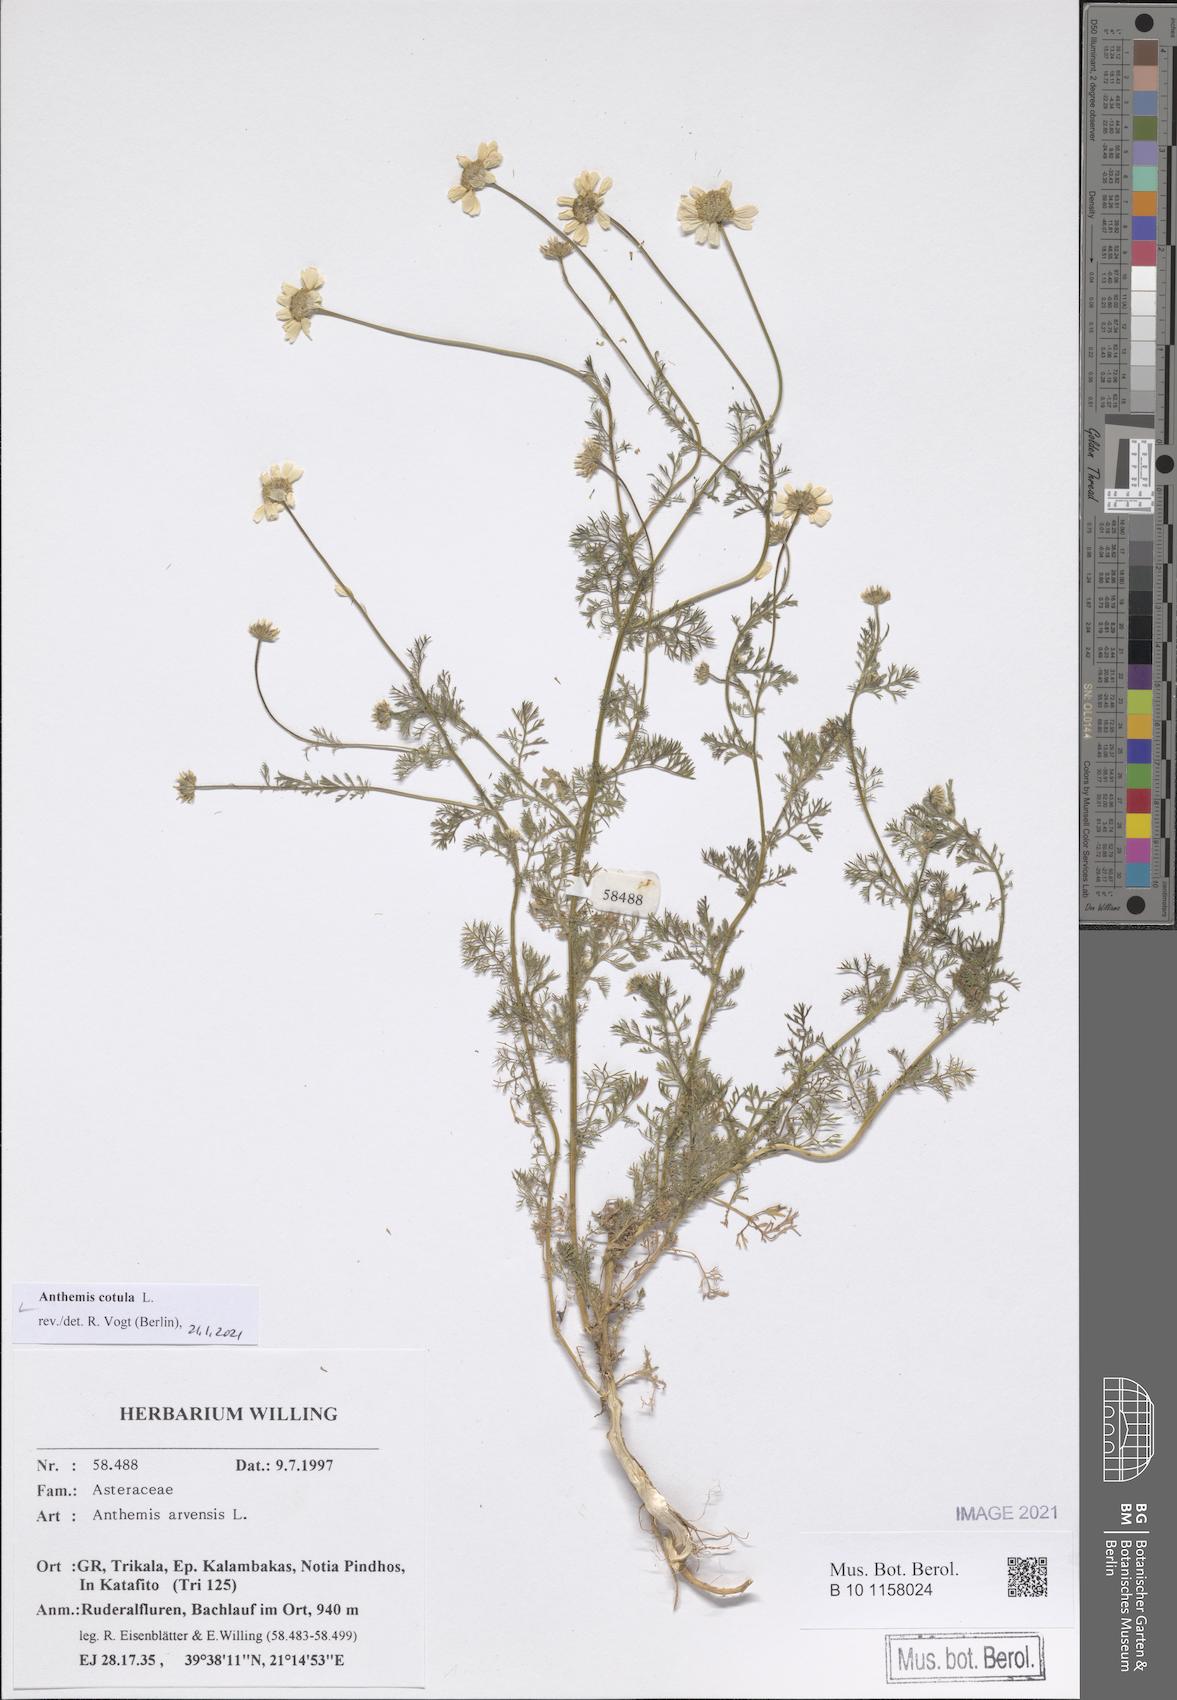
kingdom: Plantae
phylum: Tracheophyta
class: Magnoliopsida
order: Asterales
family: Asteraceae
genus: Anthemis
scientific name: Anthemis cotula
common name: Stinking chamomile
